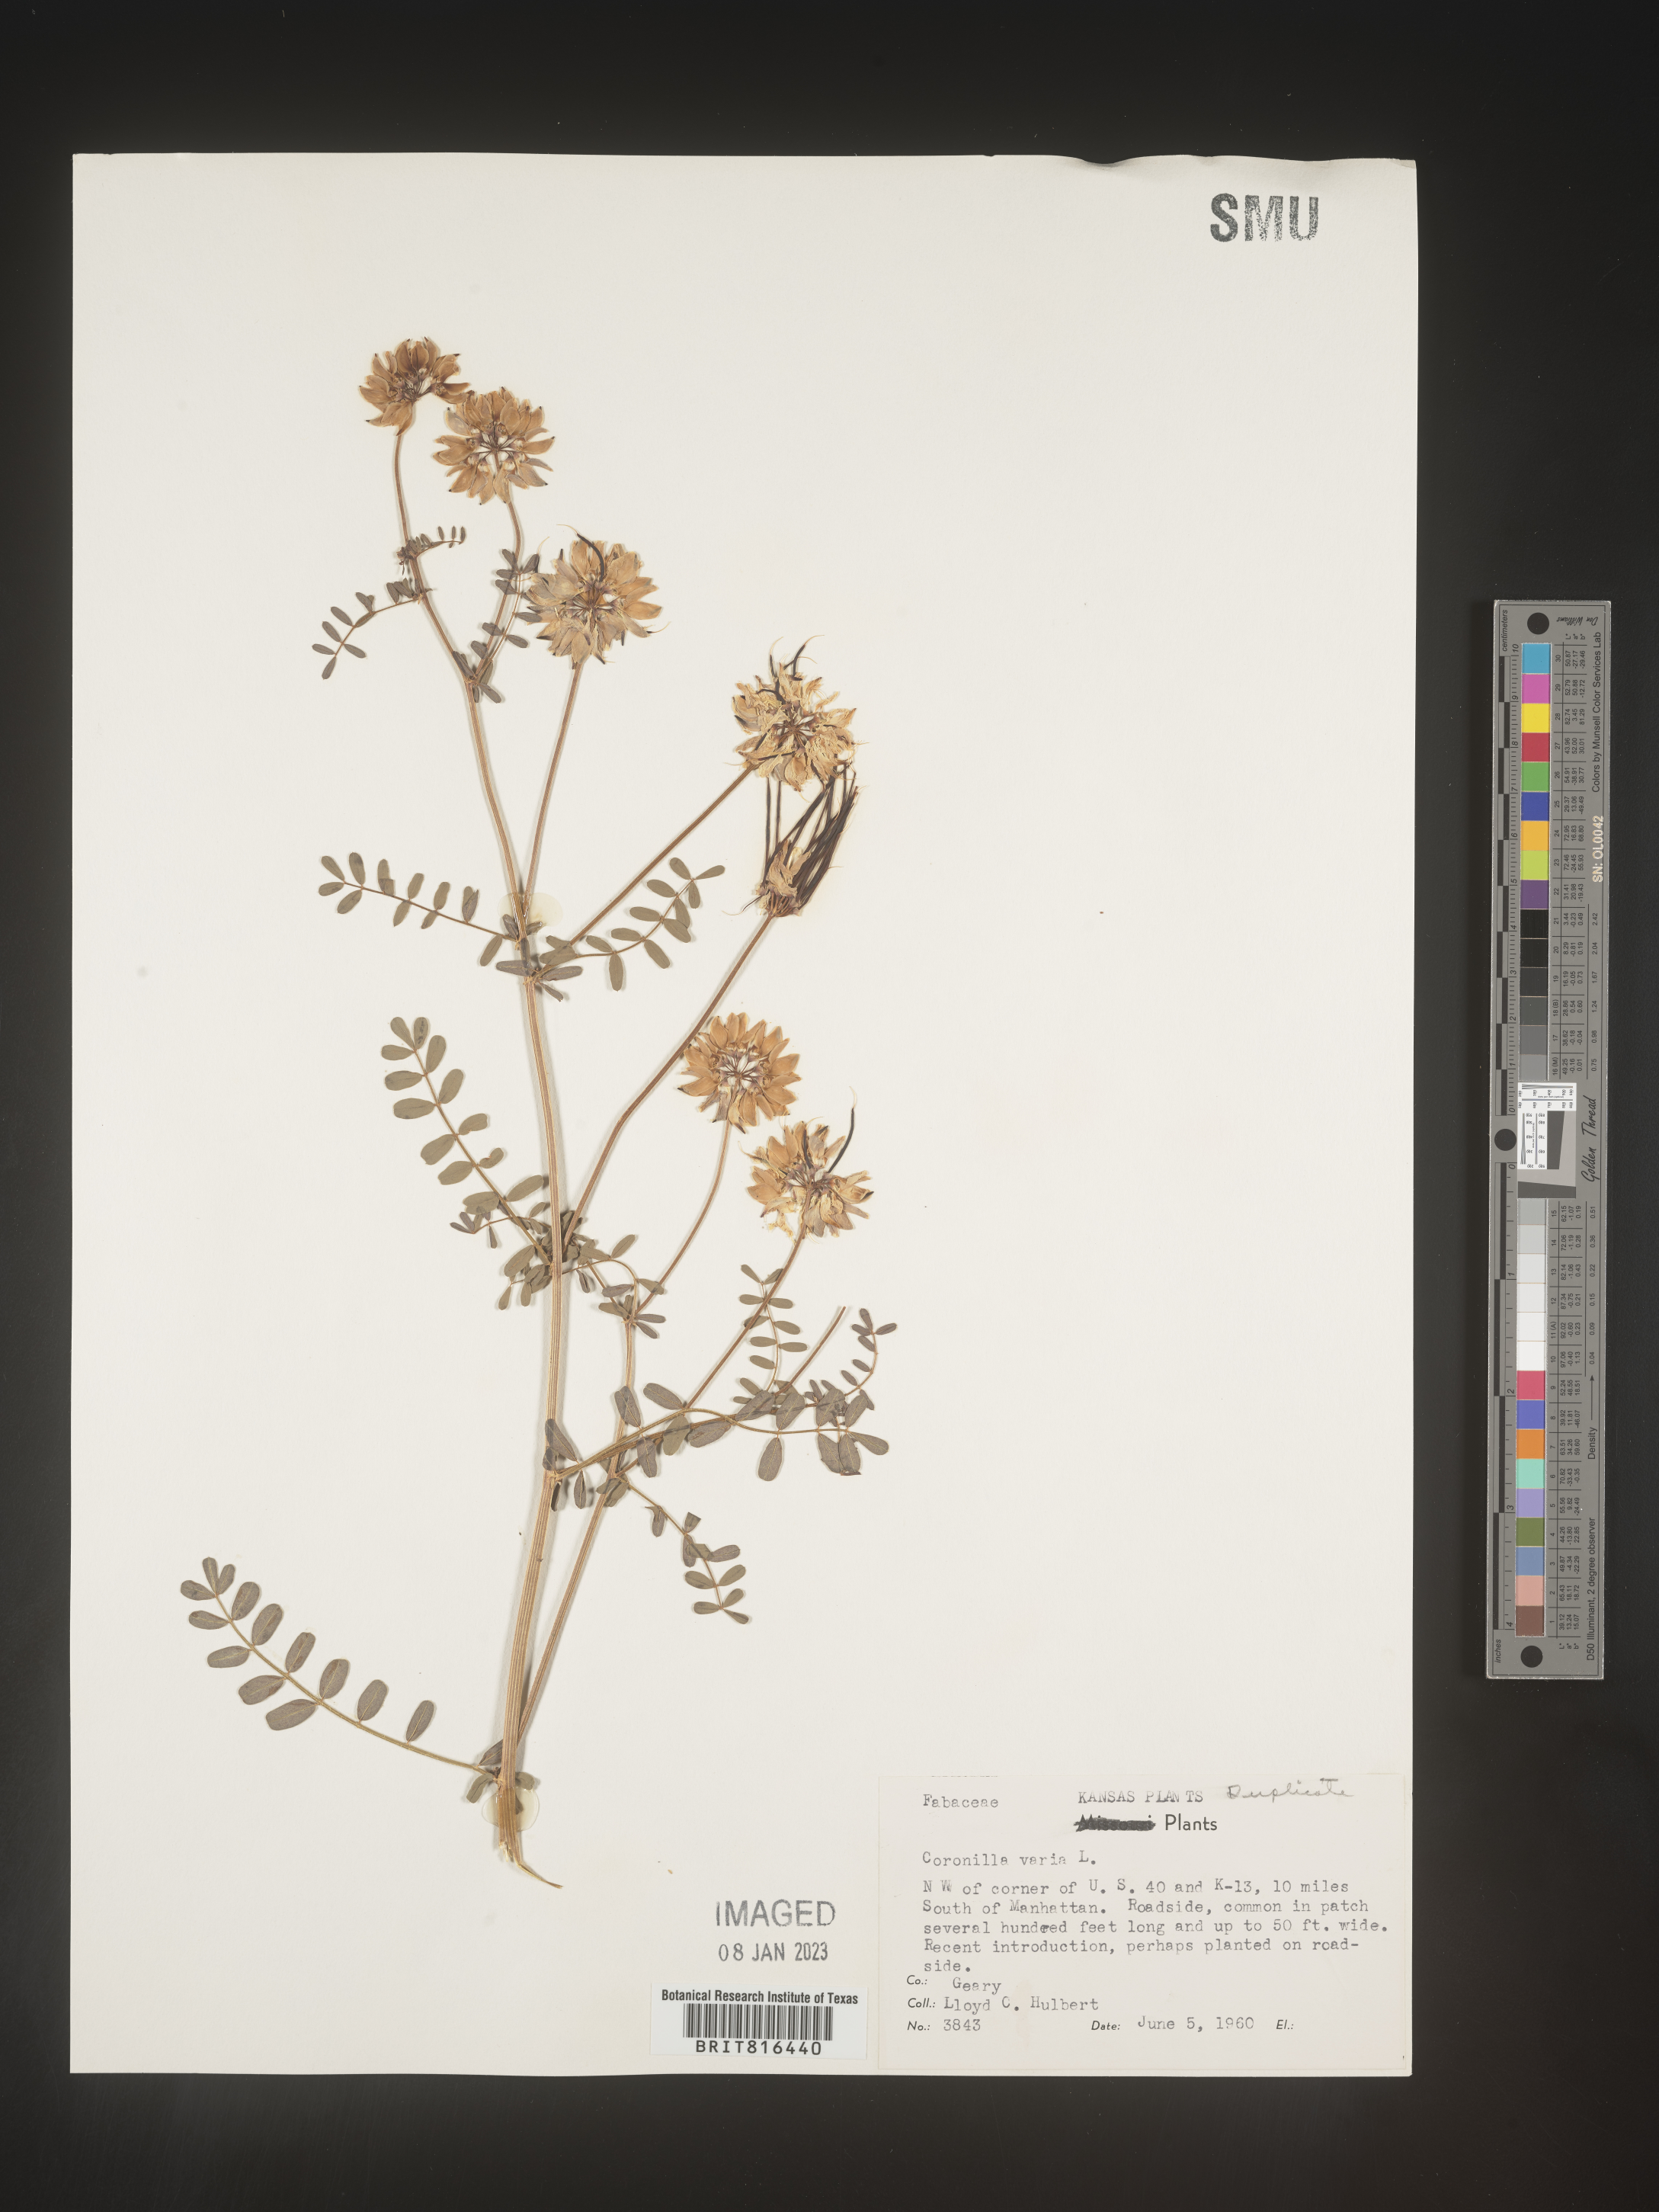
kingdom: Plantae
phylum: Tracheophyta
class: Magnoliopsida
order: Fabales
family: Fabaceae
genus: Coronilla
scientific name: Coronilla
